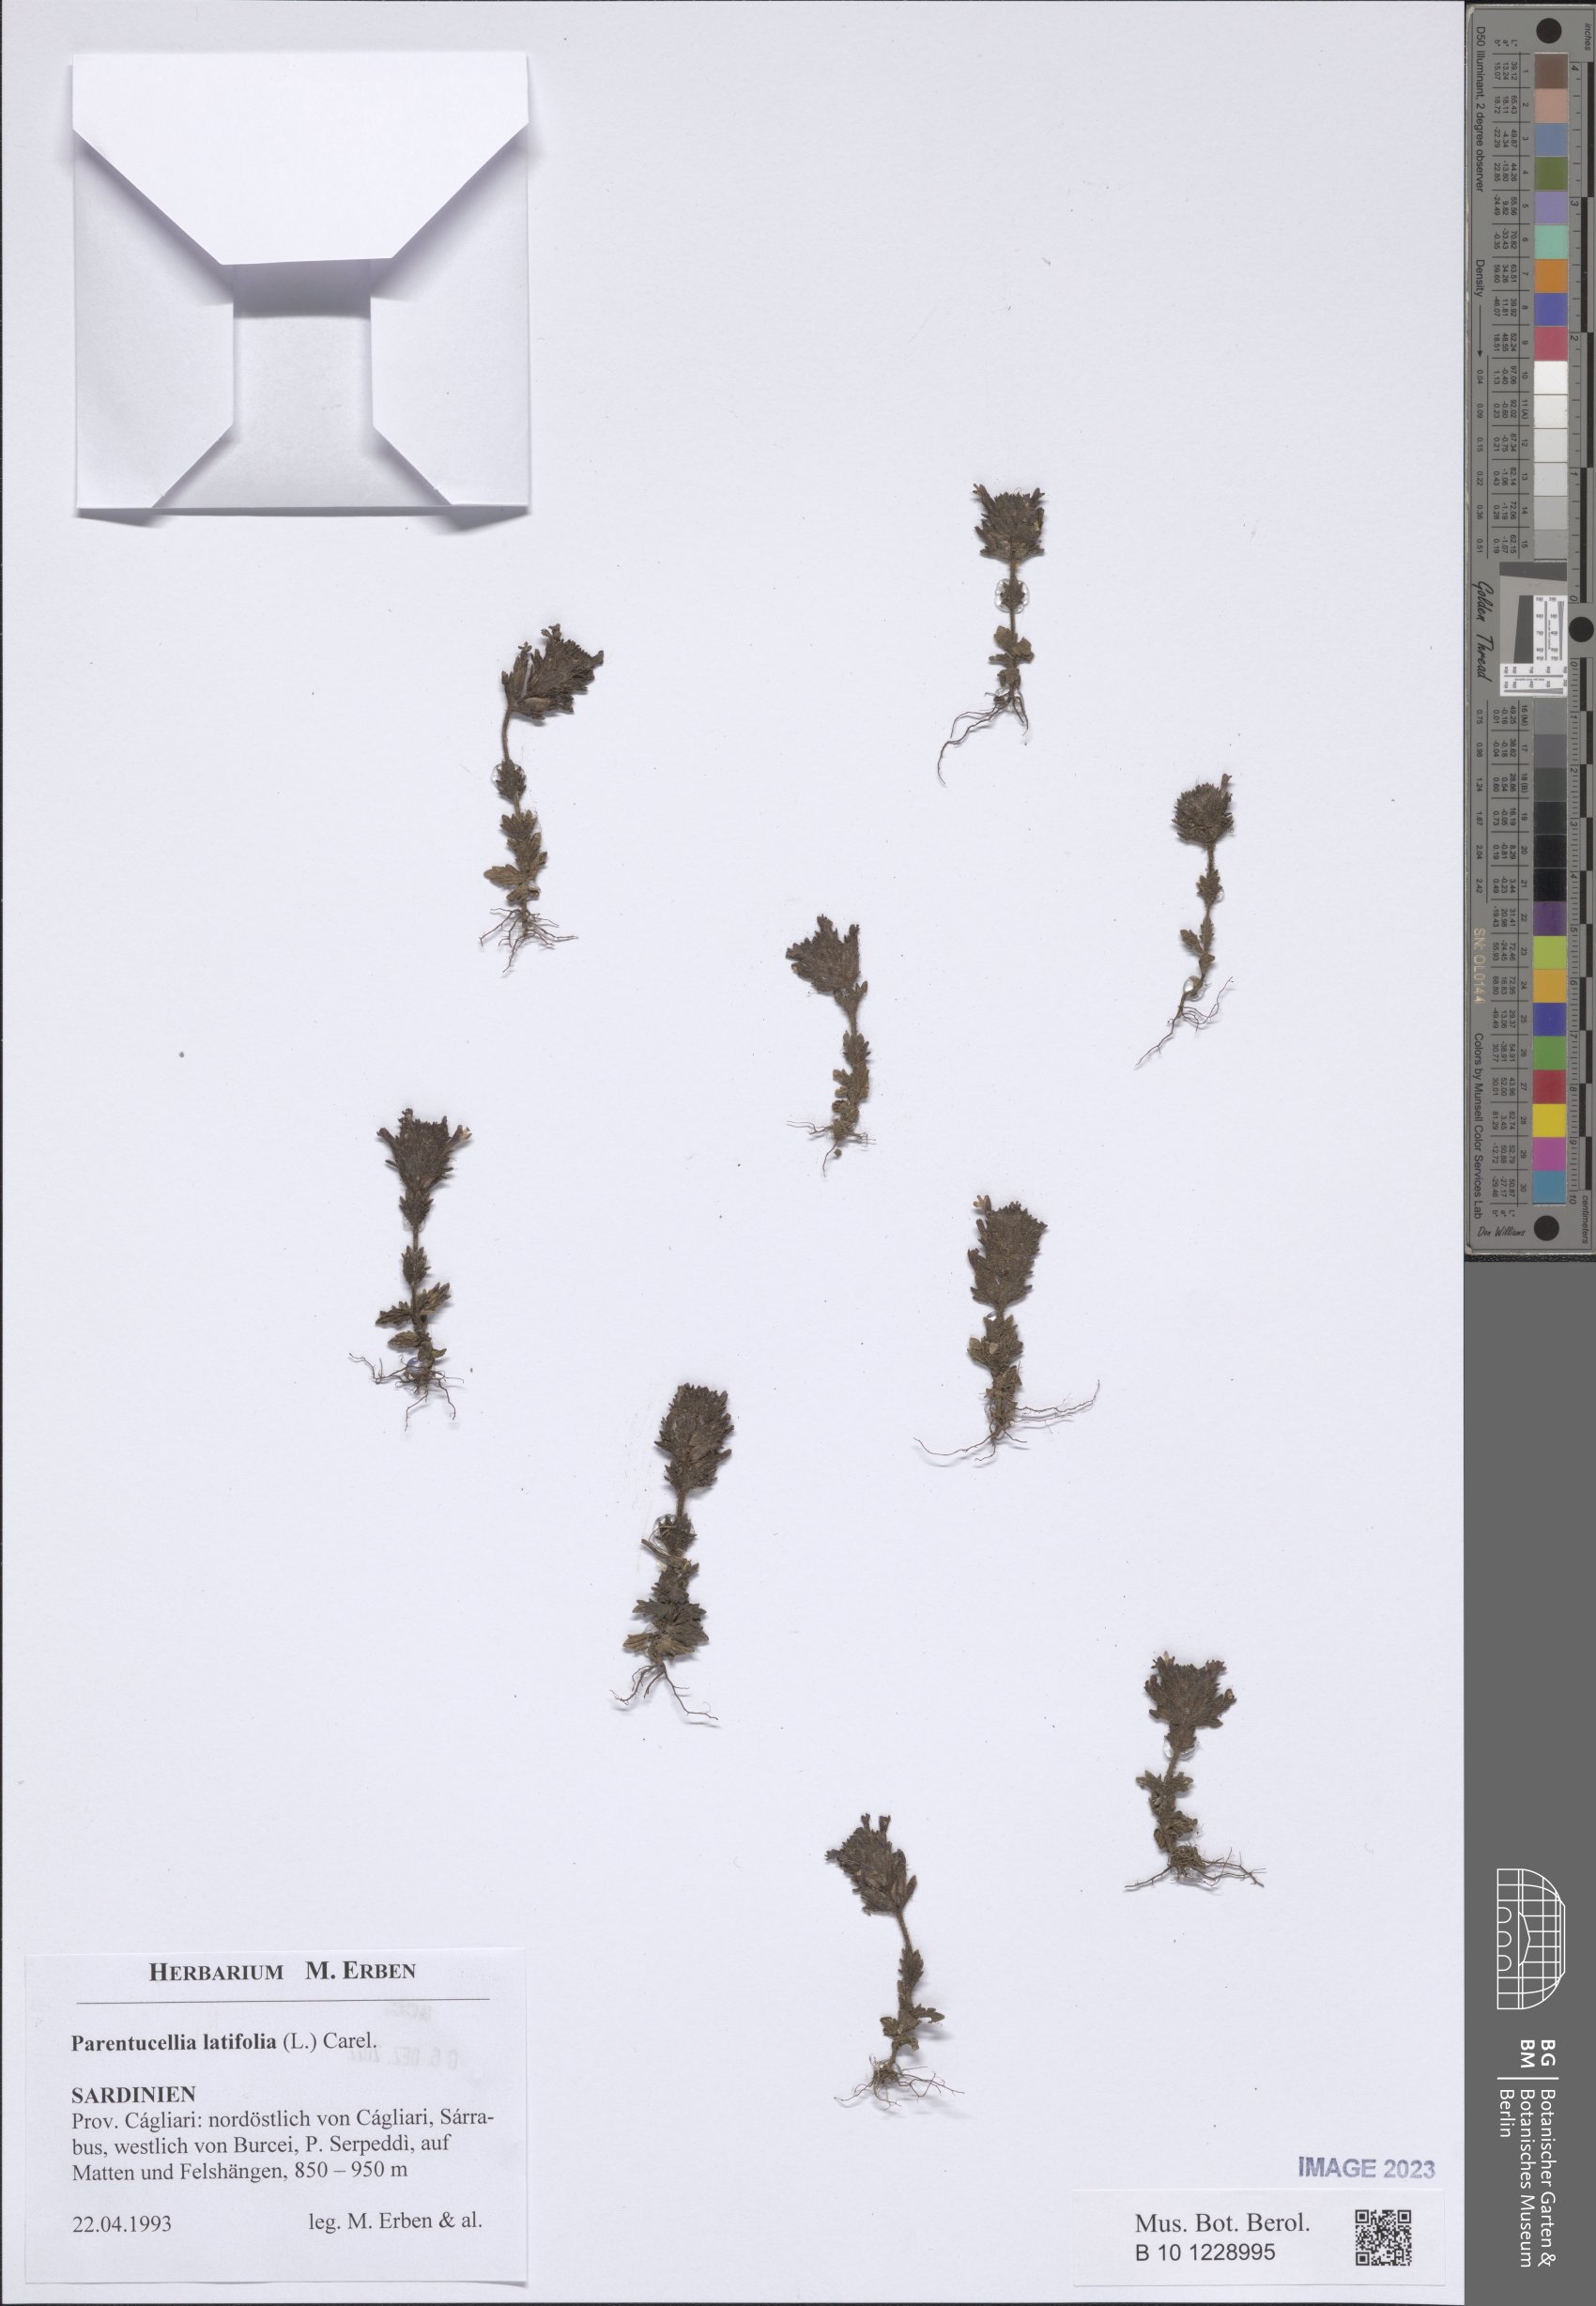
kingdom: Plantae
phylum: Tracheophyta
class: Magnoliopsida
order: Lamiales
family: Orobanchaceae
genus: Parentucellia
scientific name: Parentucellia latifolia
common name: Broadleaf glandweed
